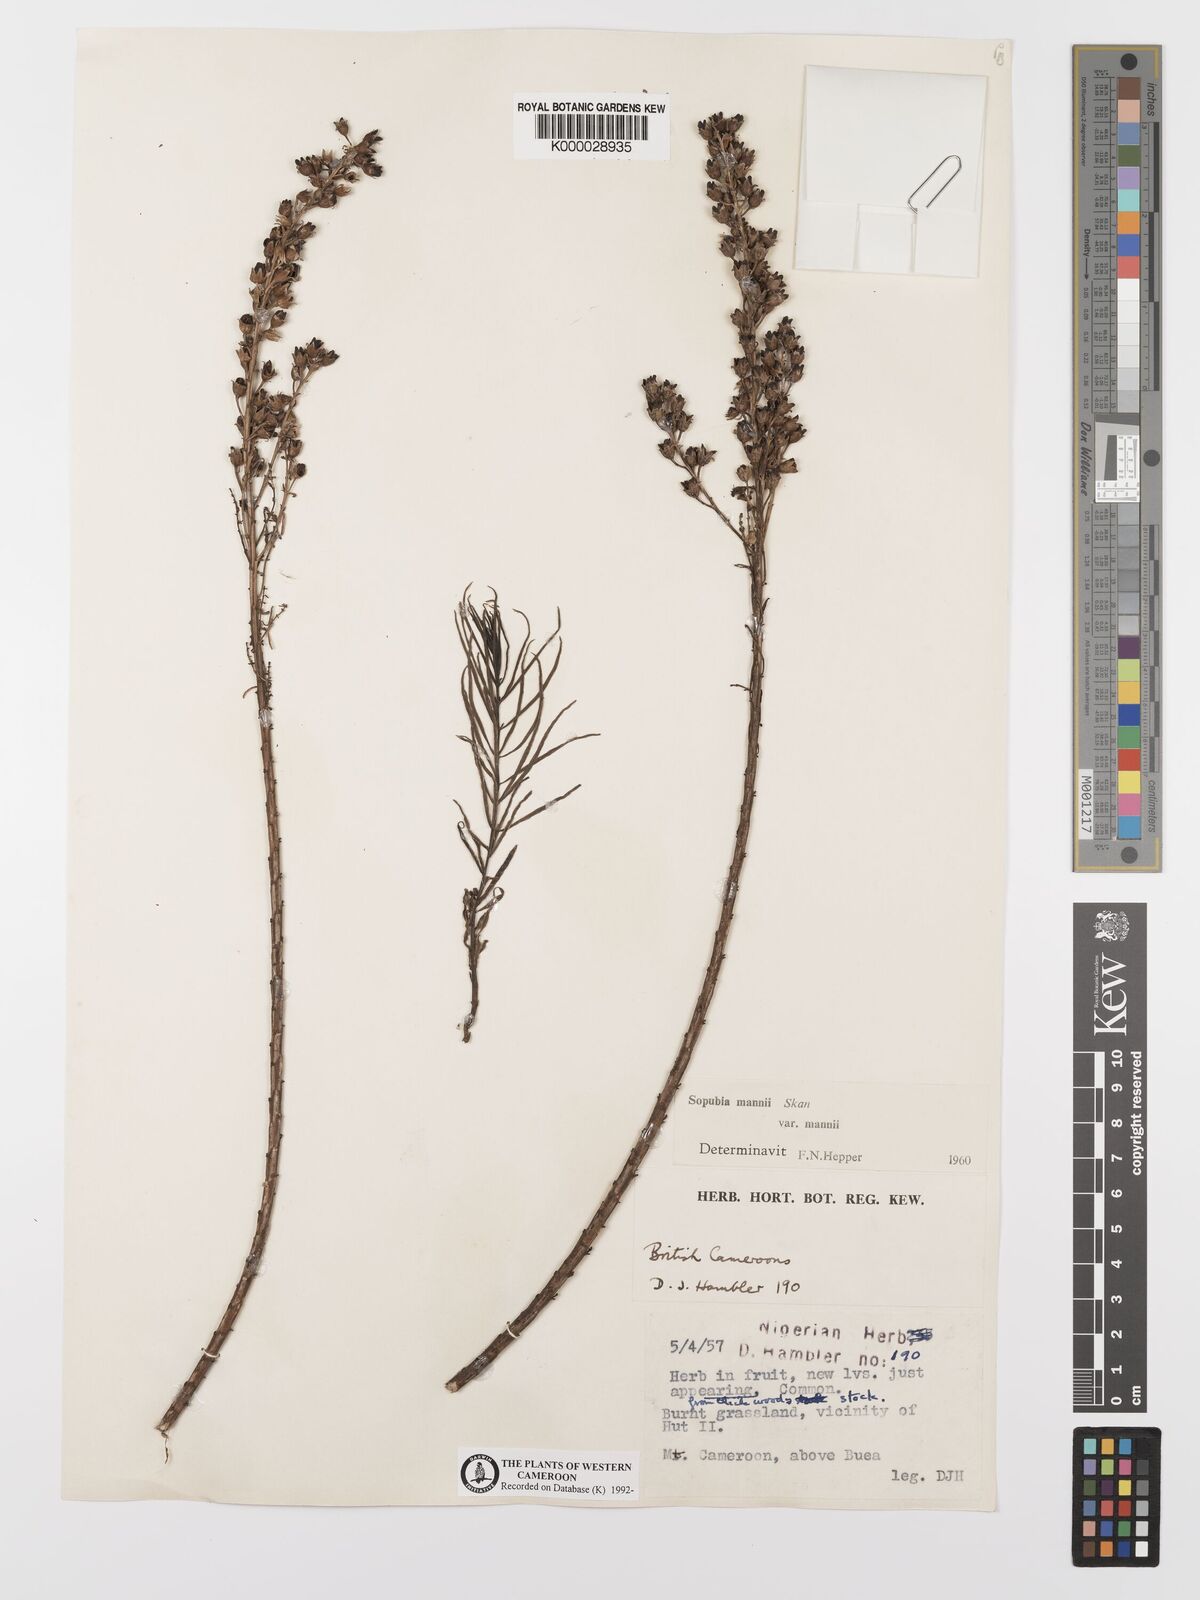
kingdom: Plantae
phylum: Tracheophyta
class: Magnoliopsida
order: Lamiales
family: Orobanchaceae
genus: Sopubia
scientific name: Sopubia mannii
